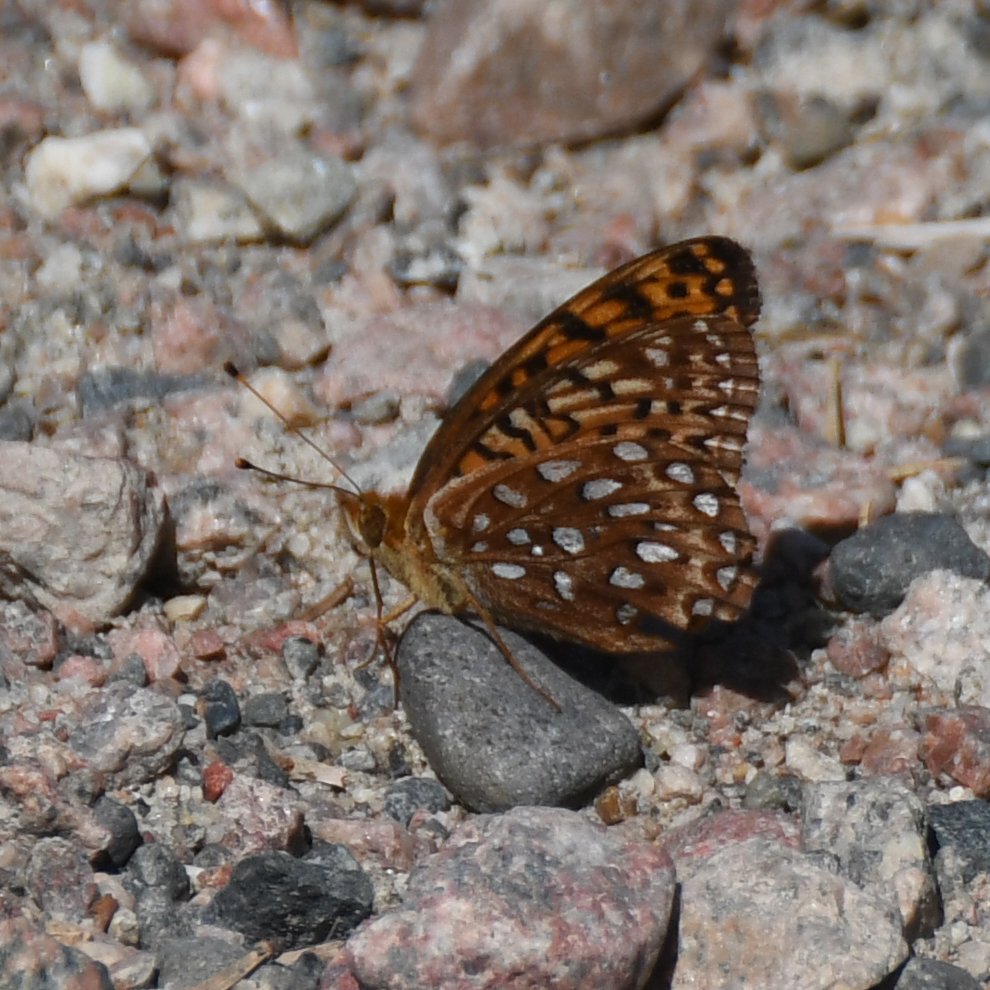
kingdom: Animalia
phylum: Arthropoda
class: Insecta
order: Lepidoptera
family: Nymphalidae
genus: Speyeria
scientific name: Speyeria aphrodite
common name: Aphrodite Fritillary
